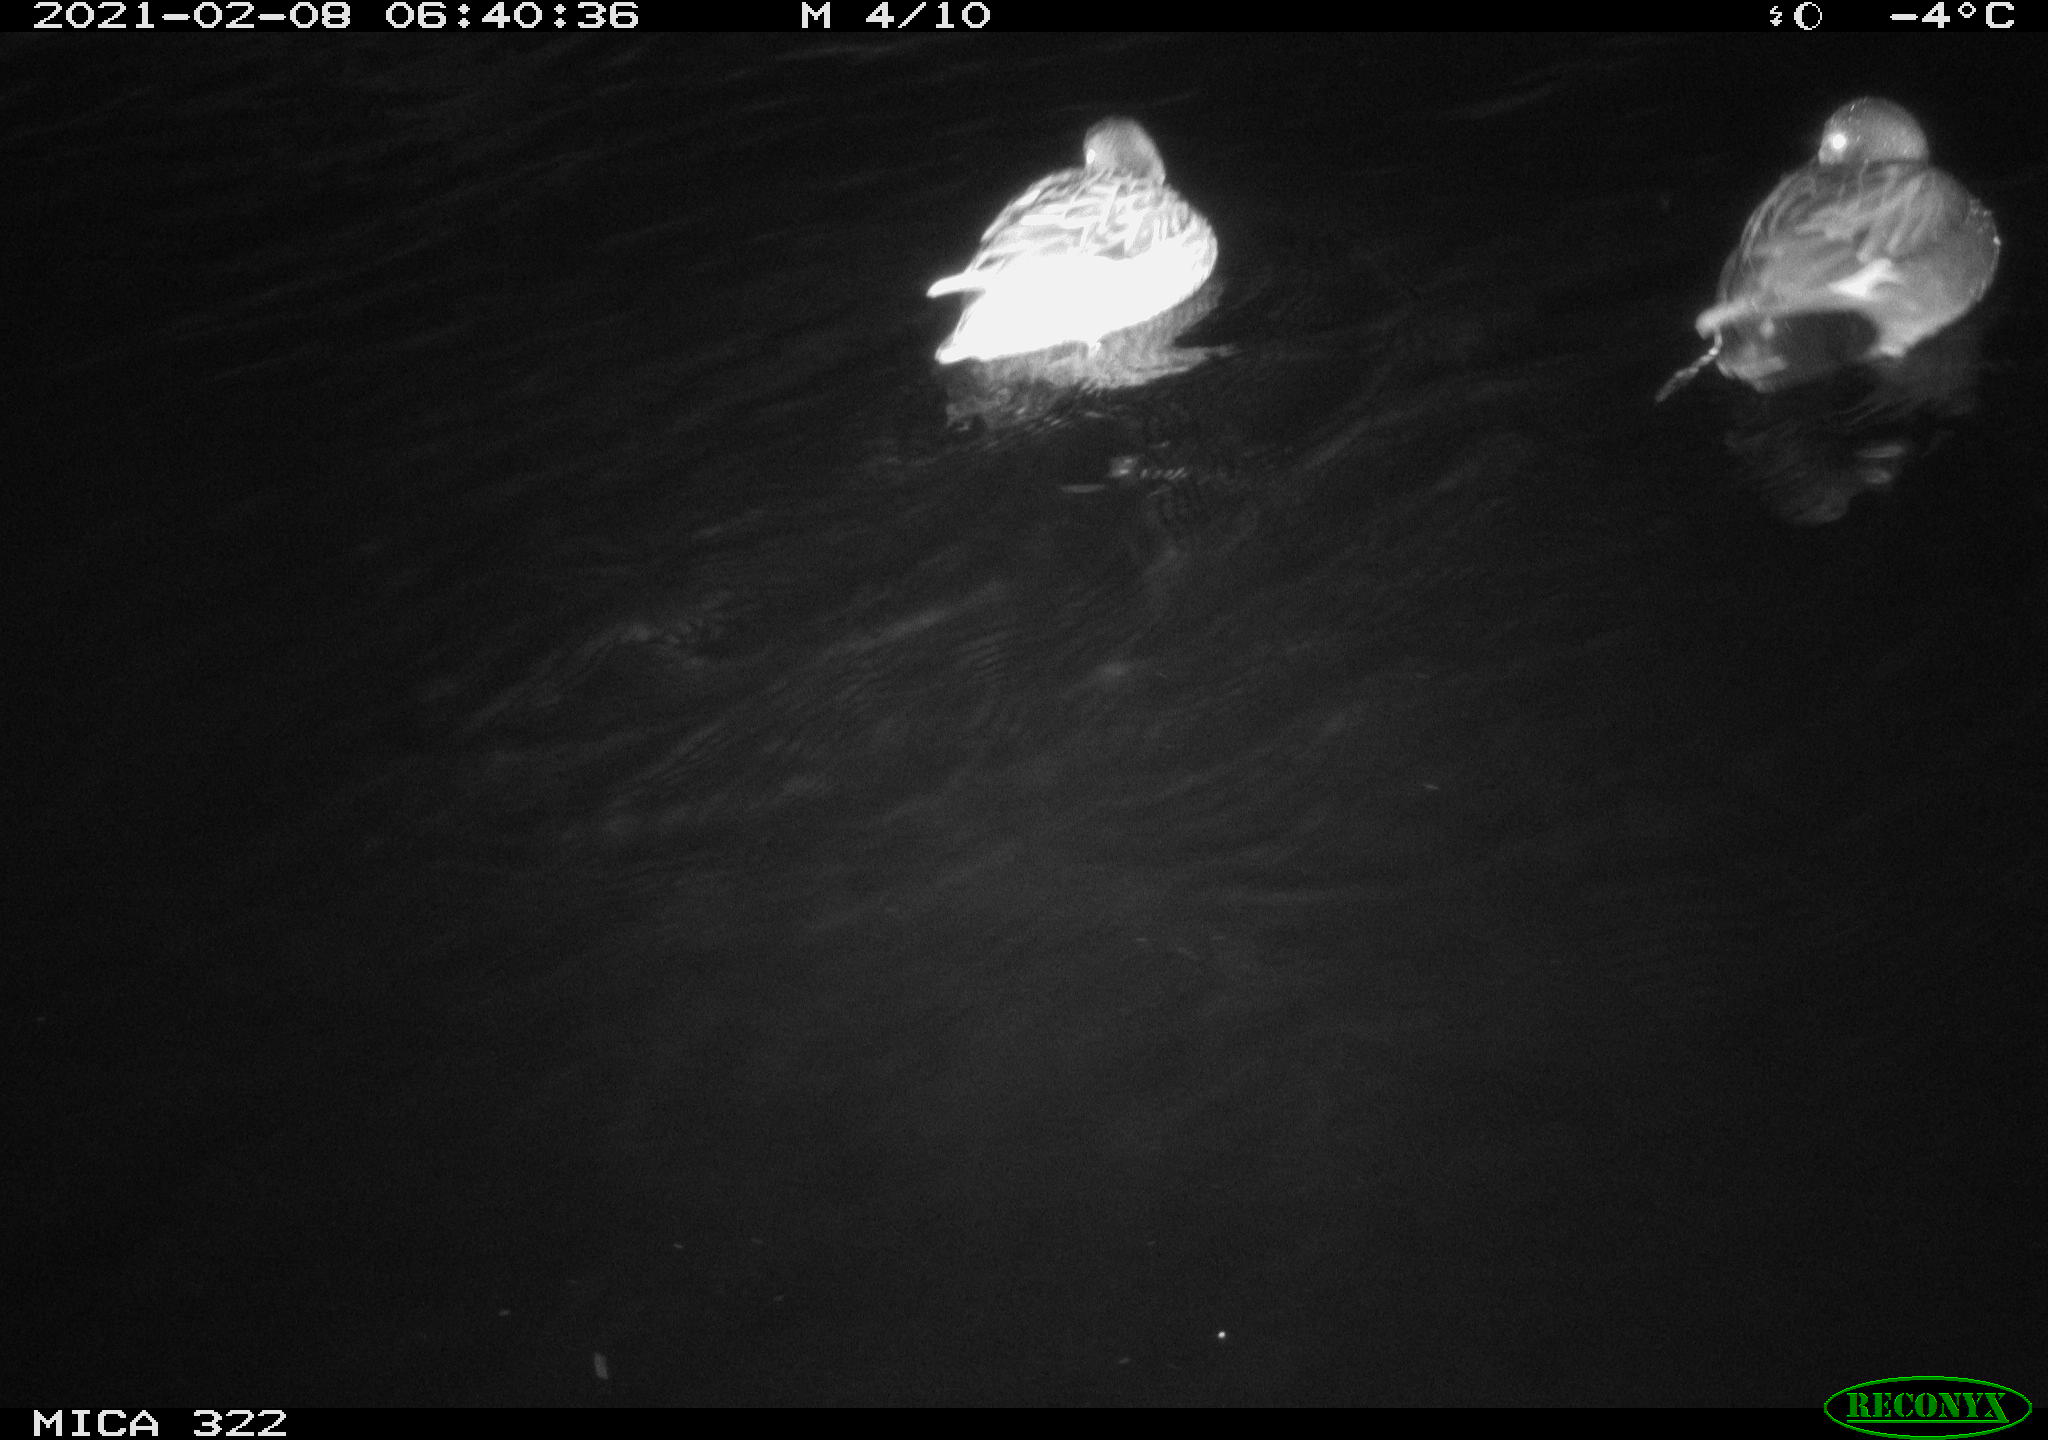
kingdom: Animalia
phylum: Chordata
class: Aves
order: Anseriformes
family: Anatidae
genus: Anas
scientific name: Anas platyrhynchos
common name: Mallard
